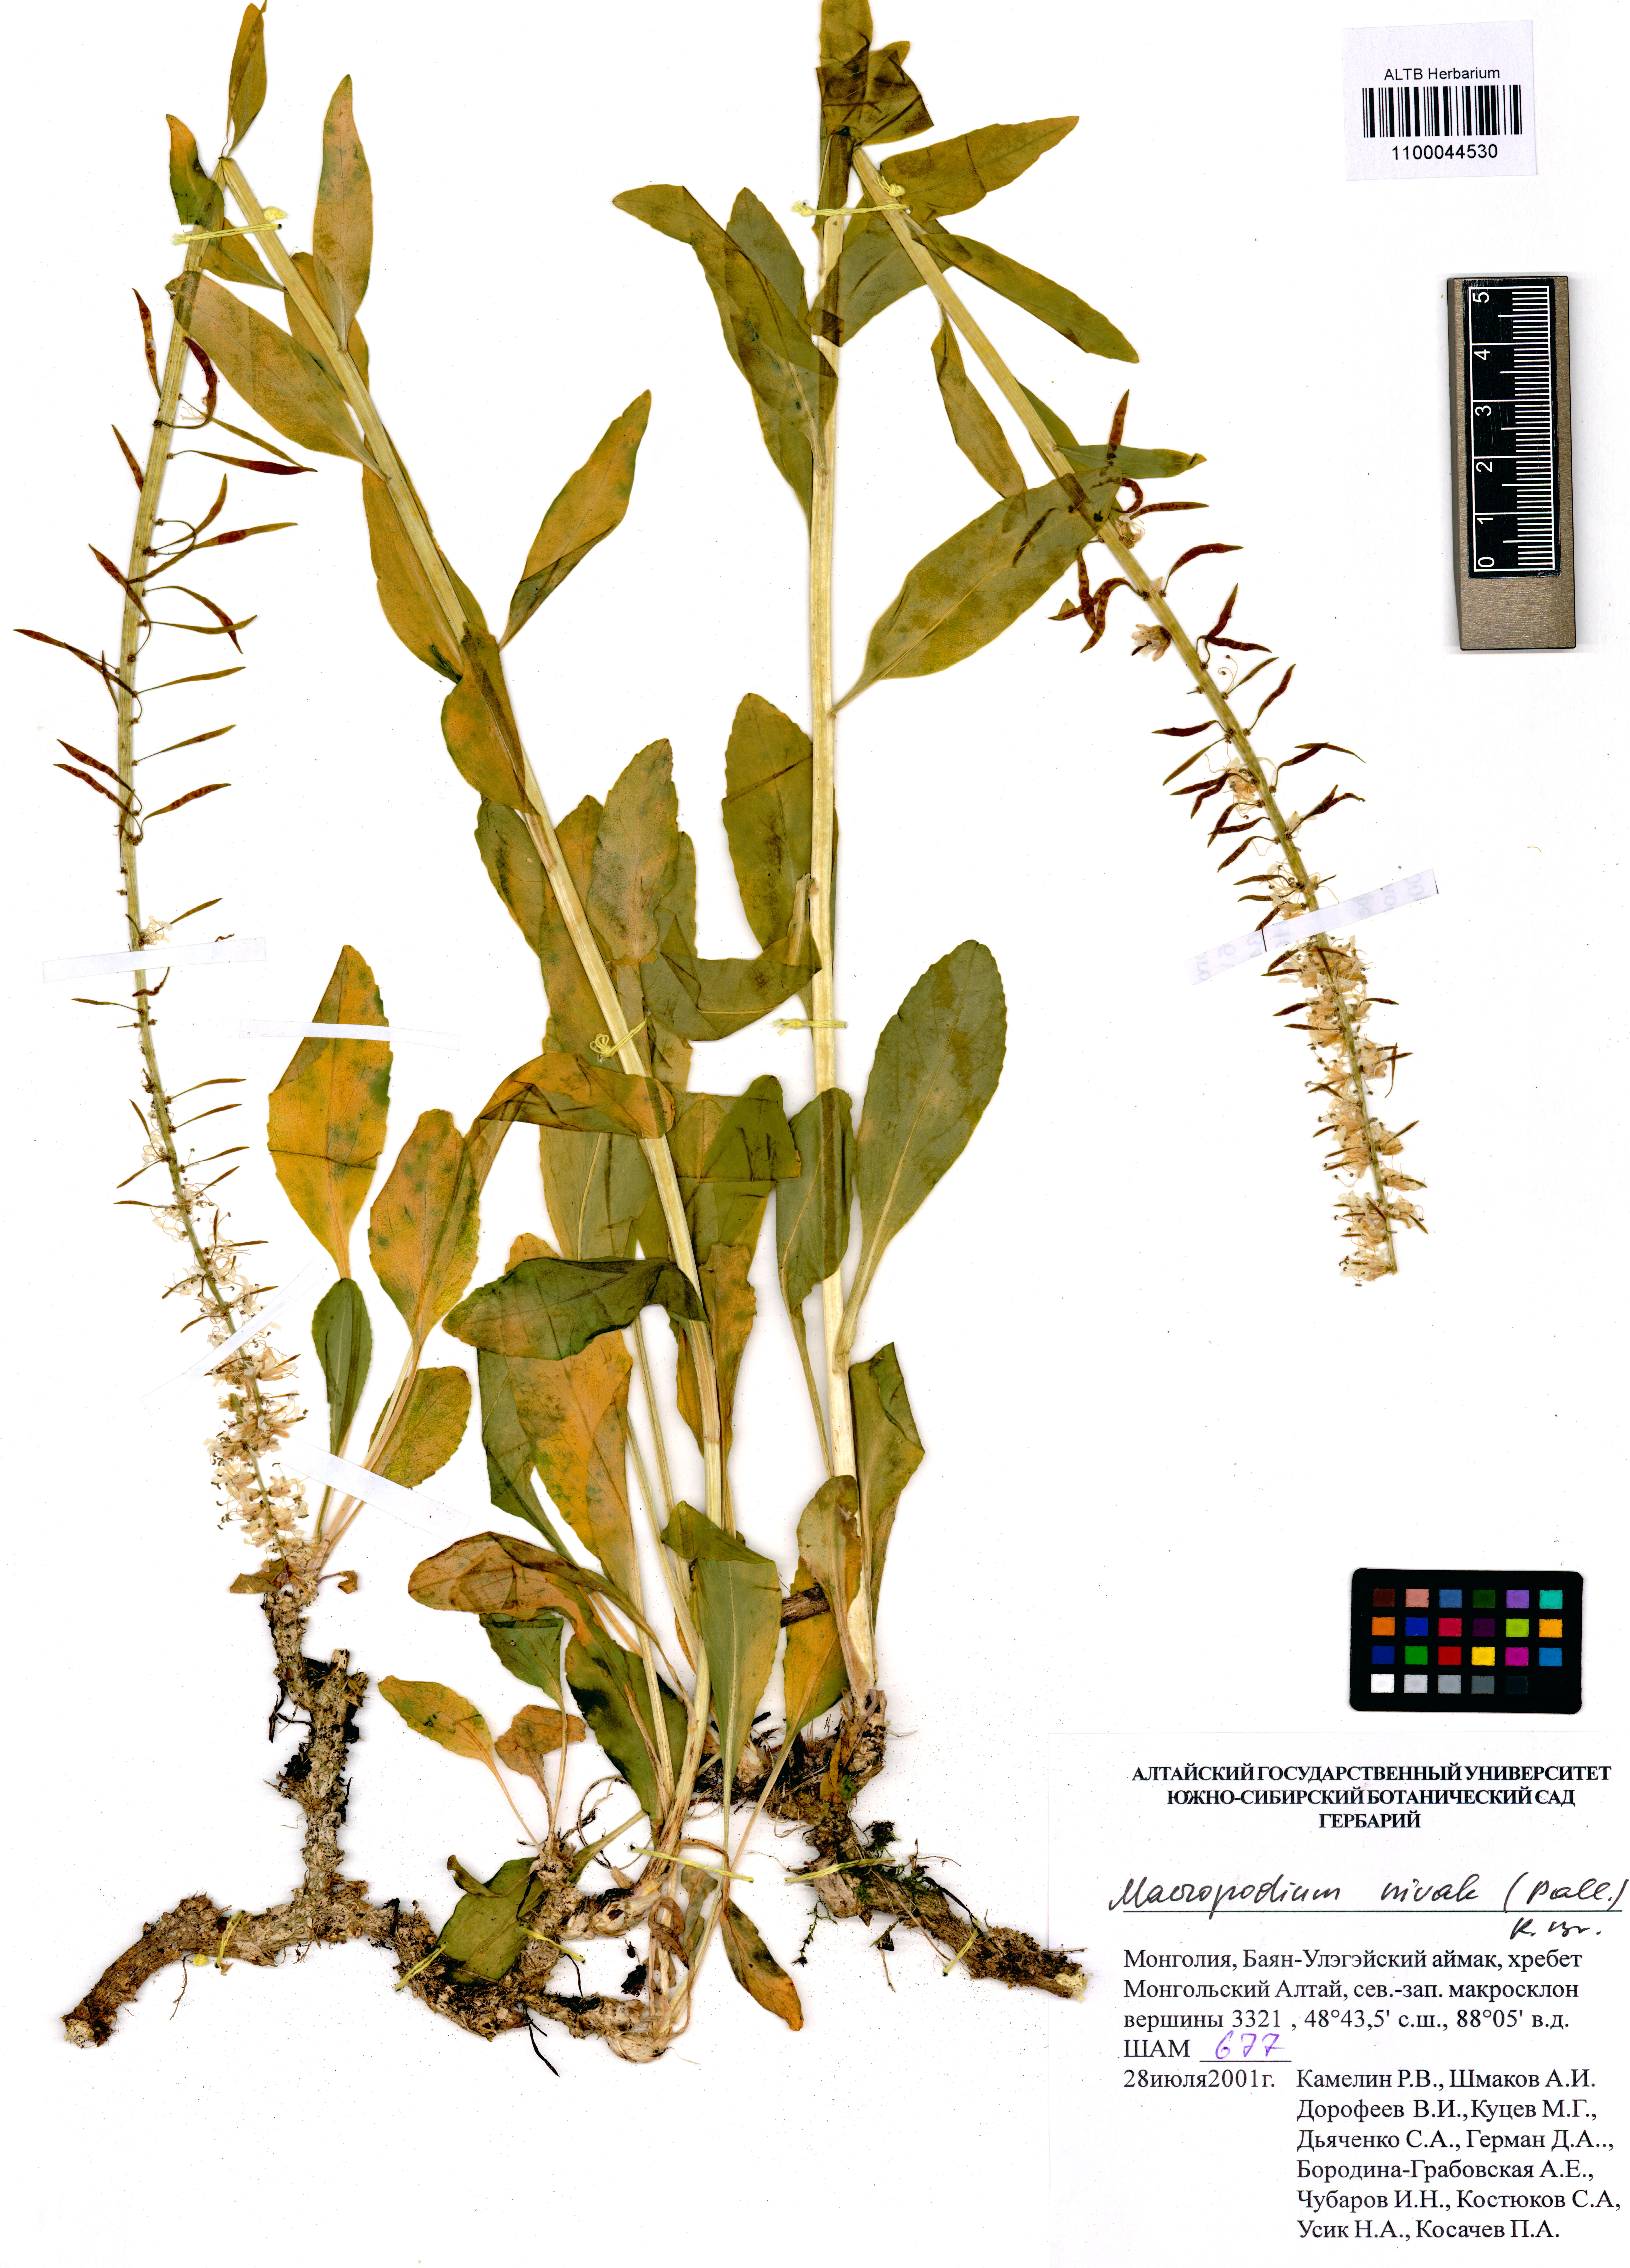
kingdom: Plantae
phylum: Tracheophyta
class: Magnoliopsida
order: Brassicales
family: Brassicaceae
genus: Macropodium
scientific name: Macropodium nivale
